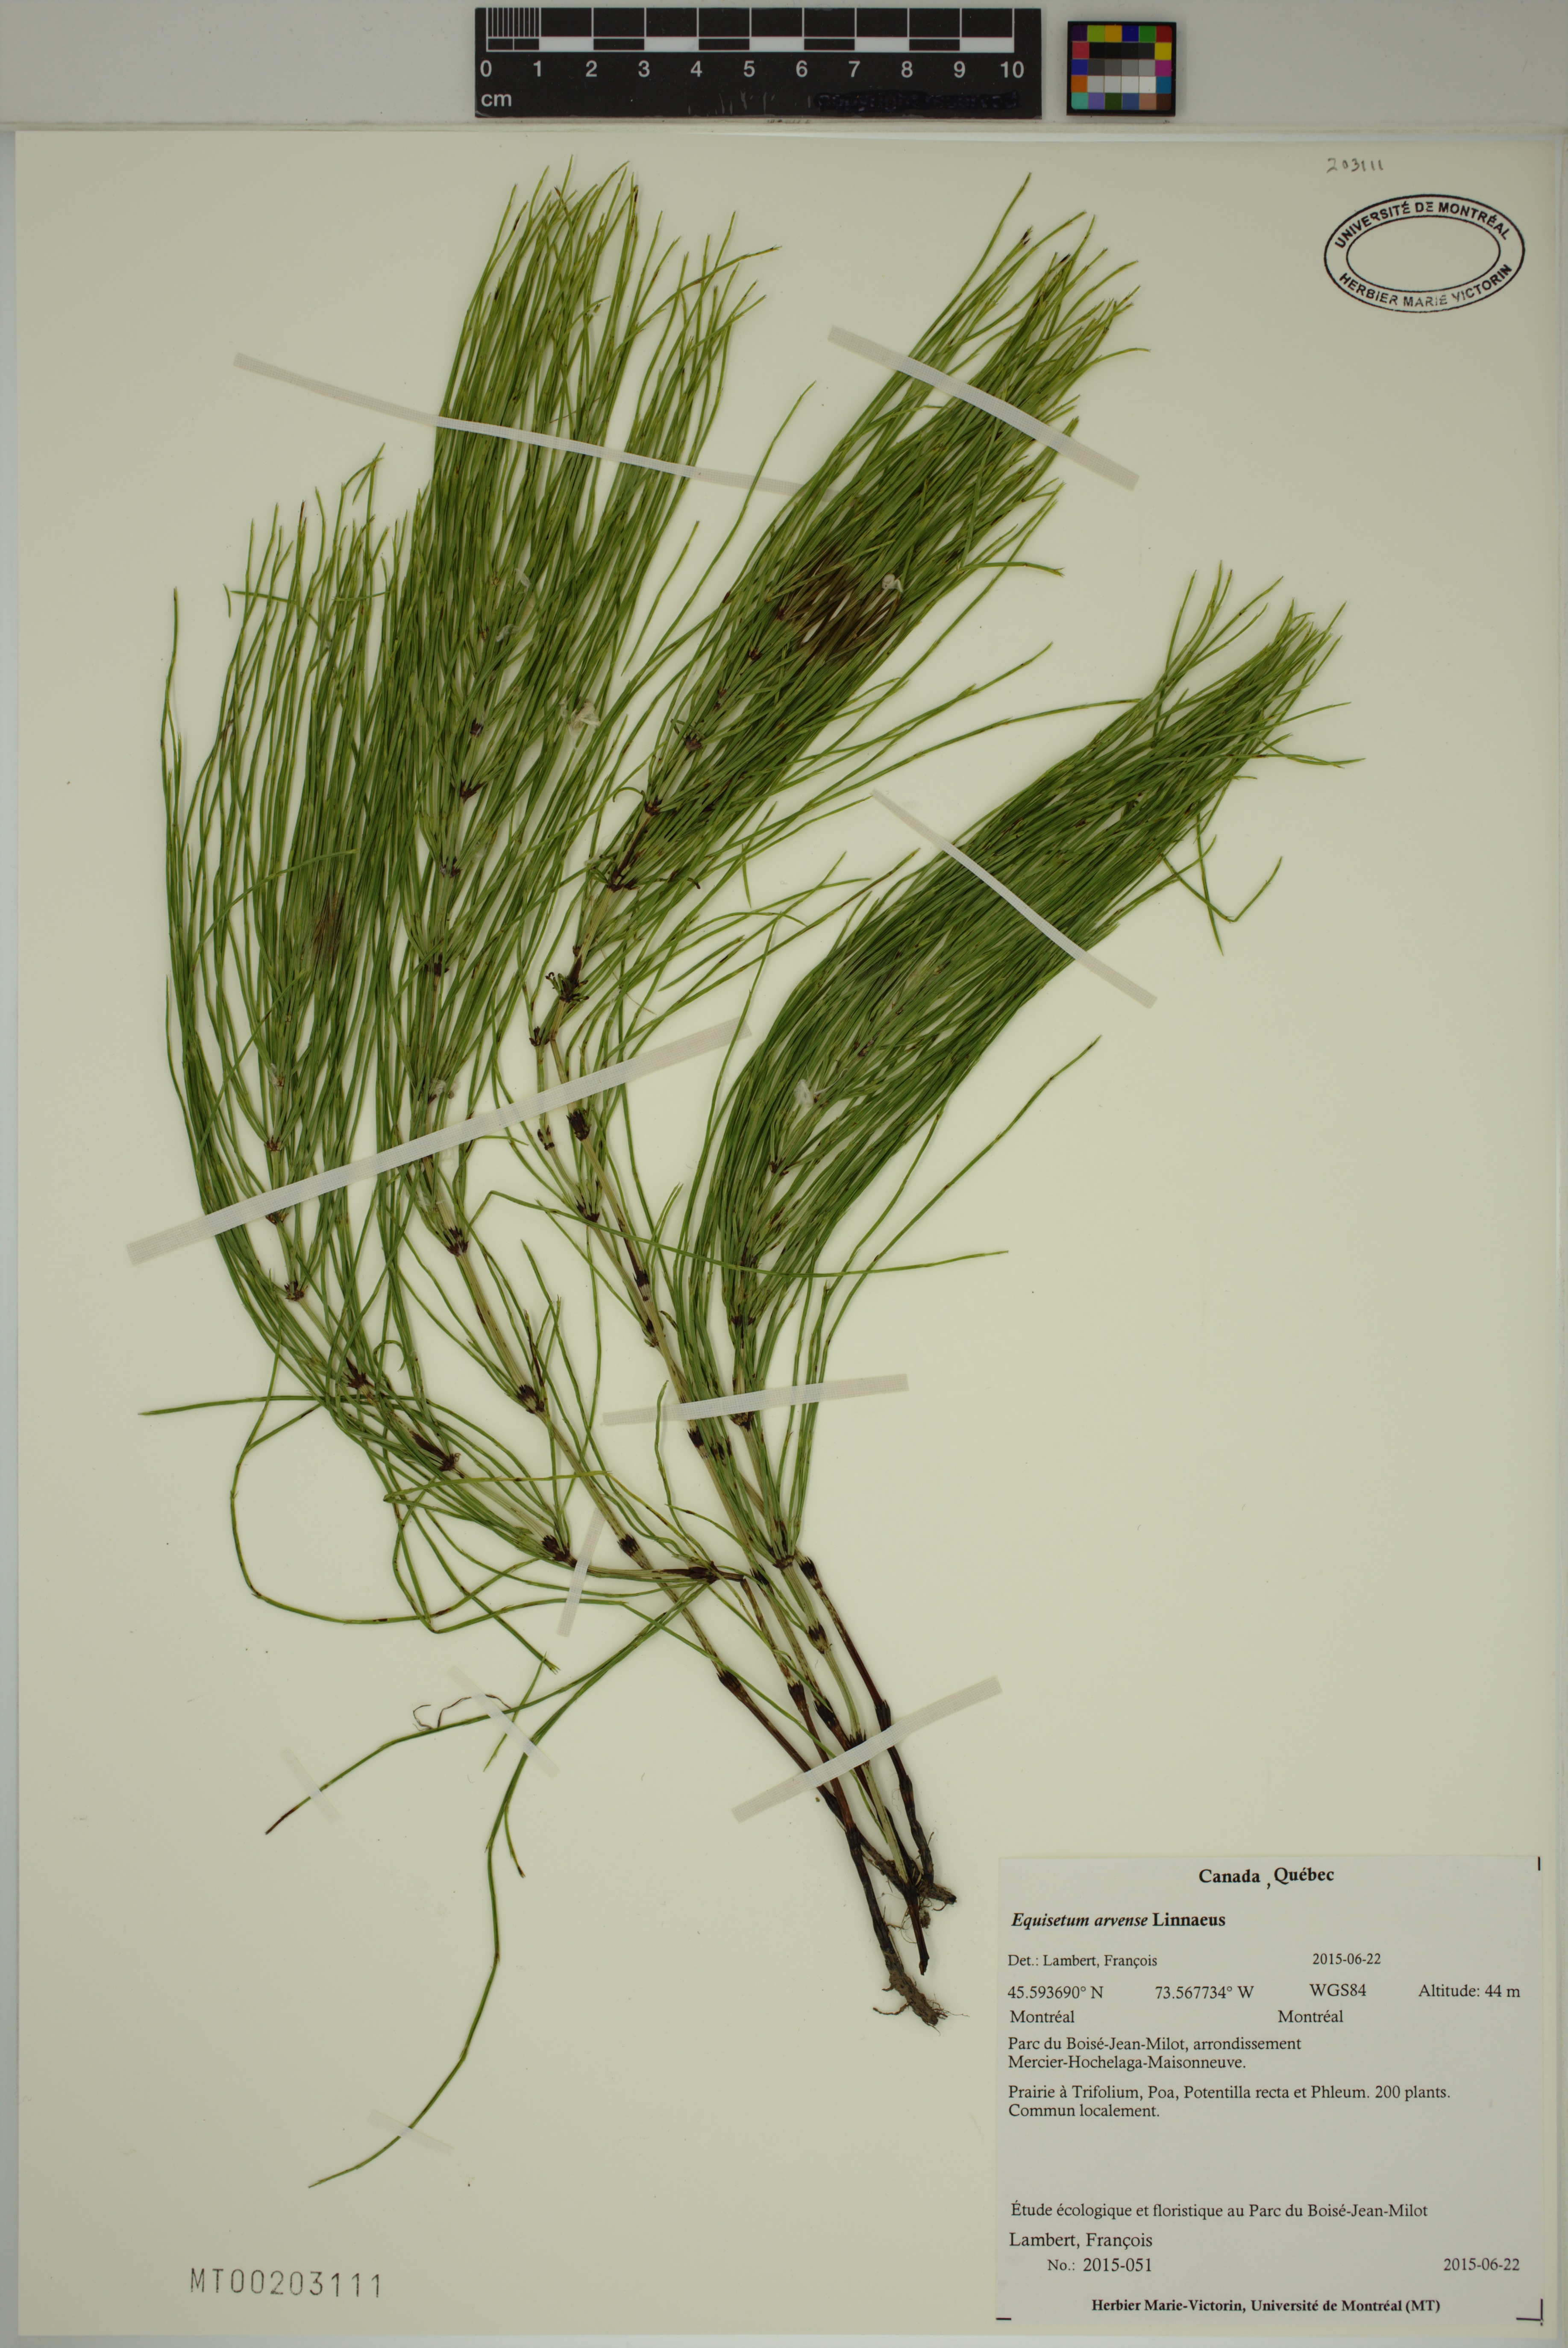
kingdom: Plantae
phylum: Tracheophyta
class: Polypodiopsida
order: Equisetales
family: Equisetaceae
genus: Equisetum
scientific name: Equisetum arvense
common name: Field horsetail
